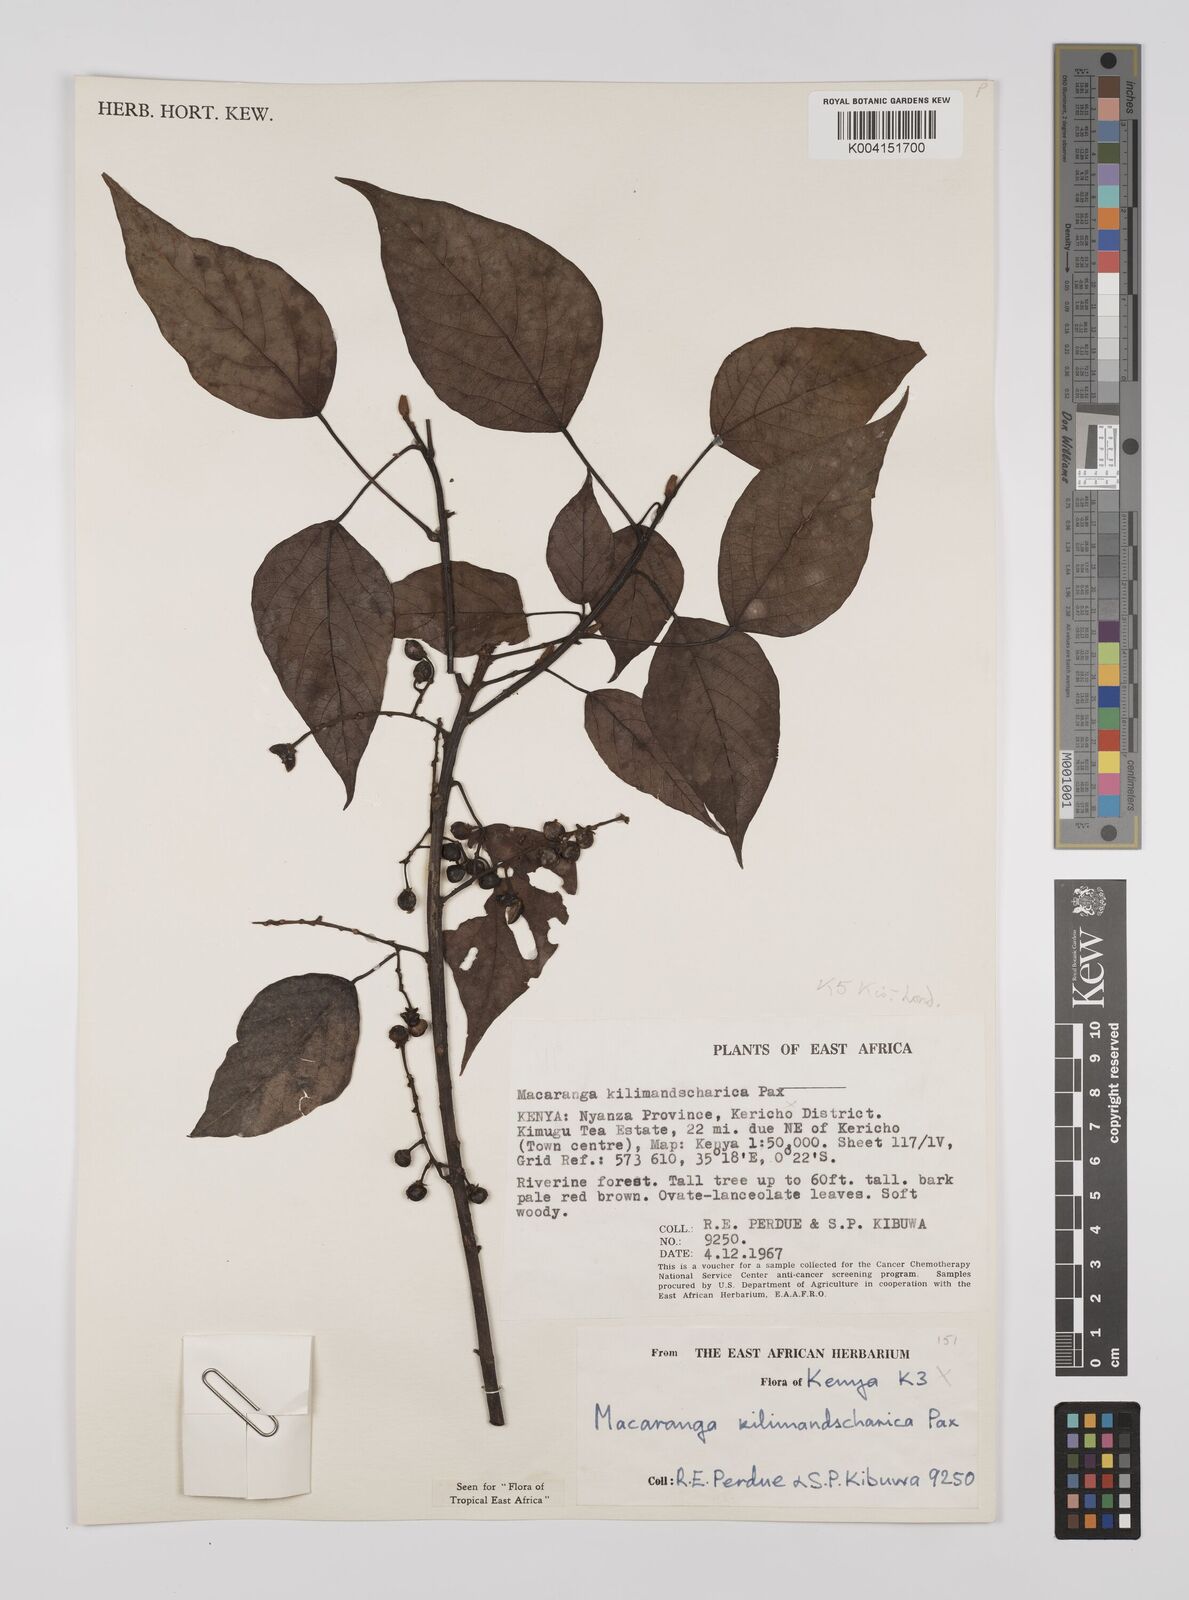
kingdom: Plantae
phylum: Tracheophyta
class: Magnoliopsida
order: Malpighiales
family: Euphorbiaceae
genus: Macaranga
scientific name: Macaranga kilimandscharica
